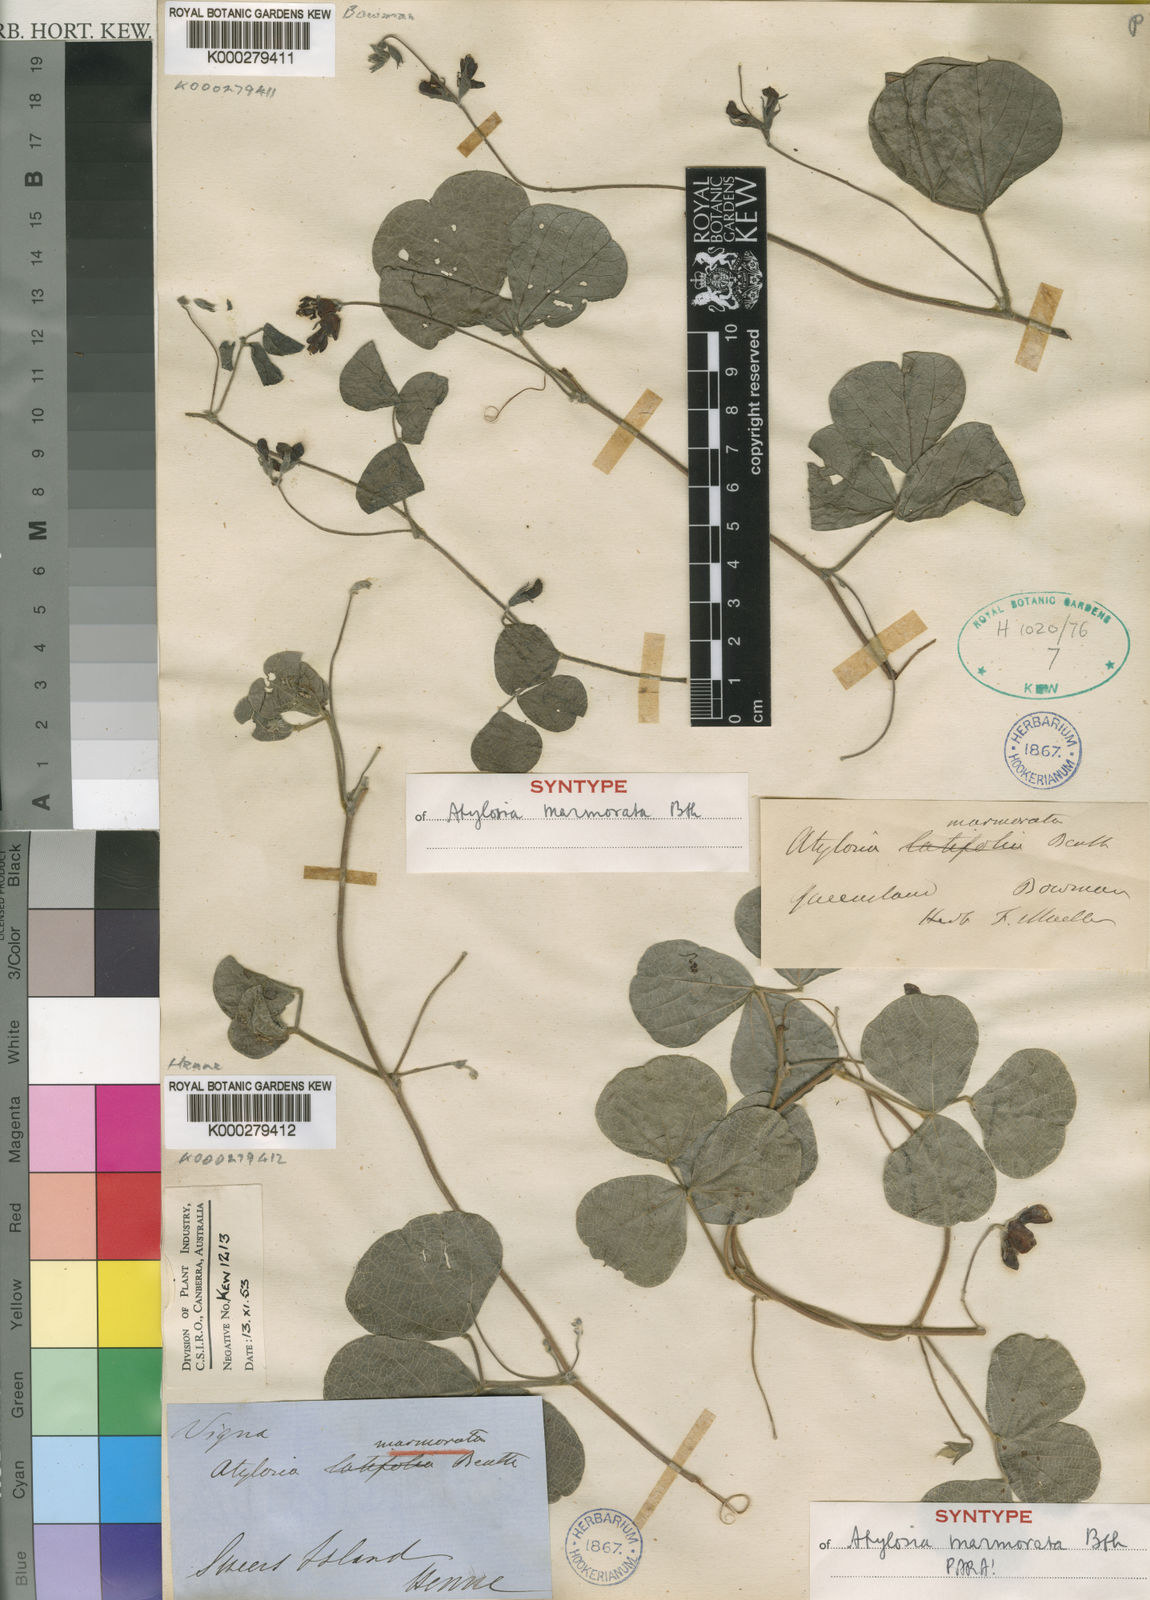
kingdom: Plantae
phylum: Tracheophyta
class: Magnoliopsida
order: Fabales
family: Fabaceae
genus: Cajanus
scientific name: Cajanus marmoratus
